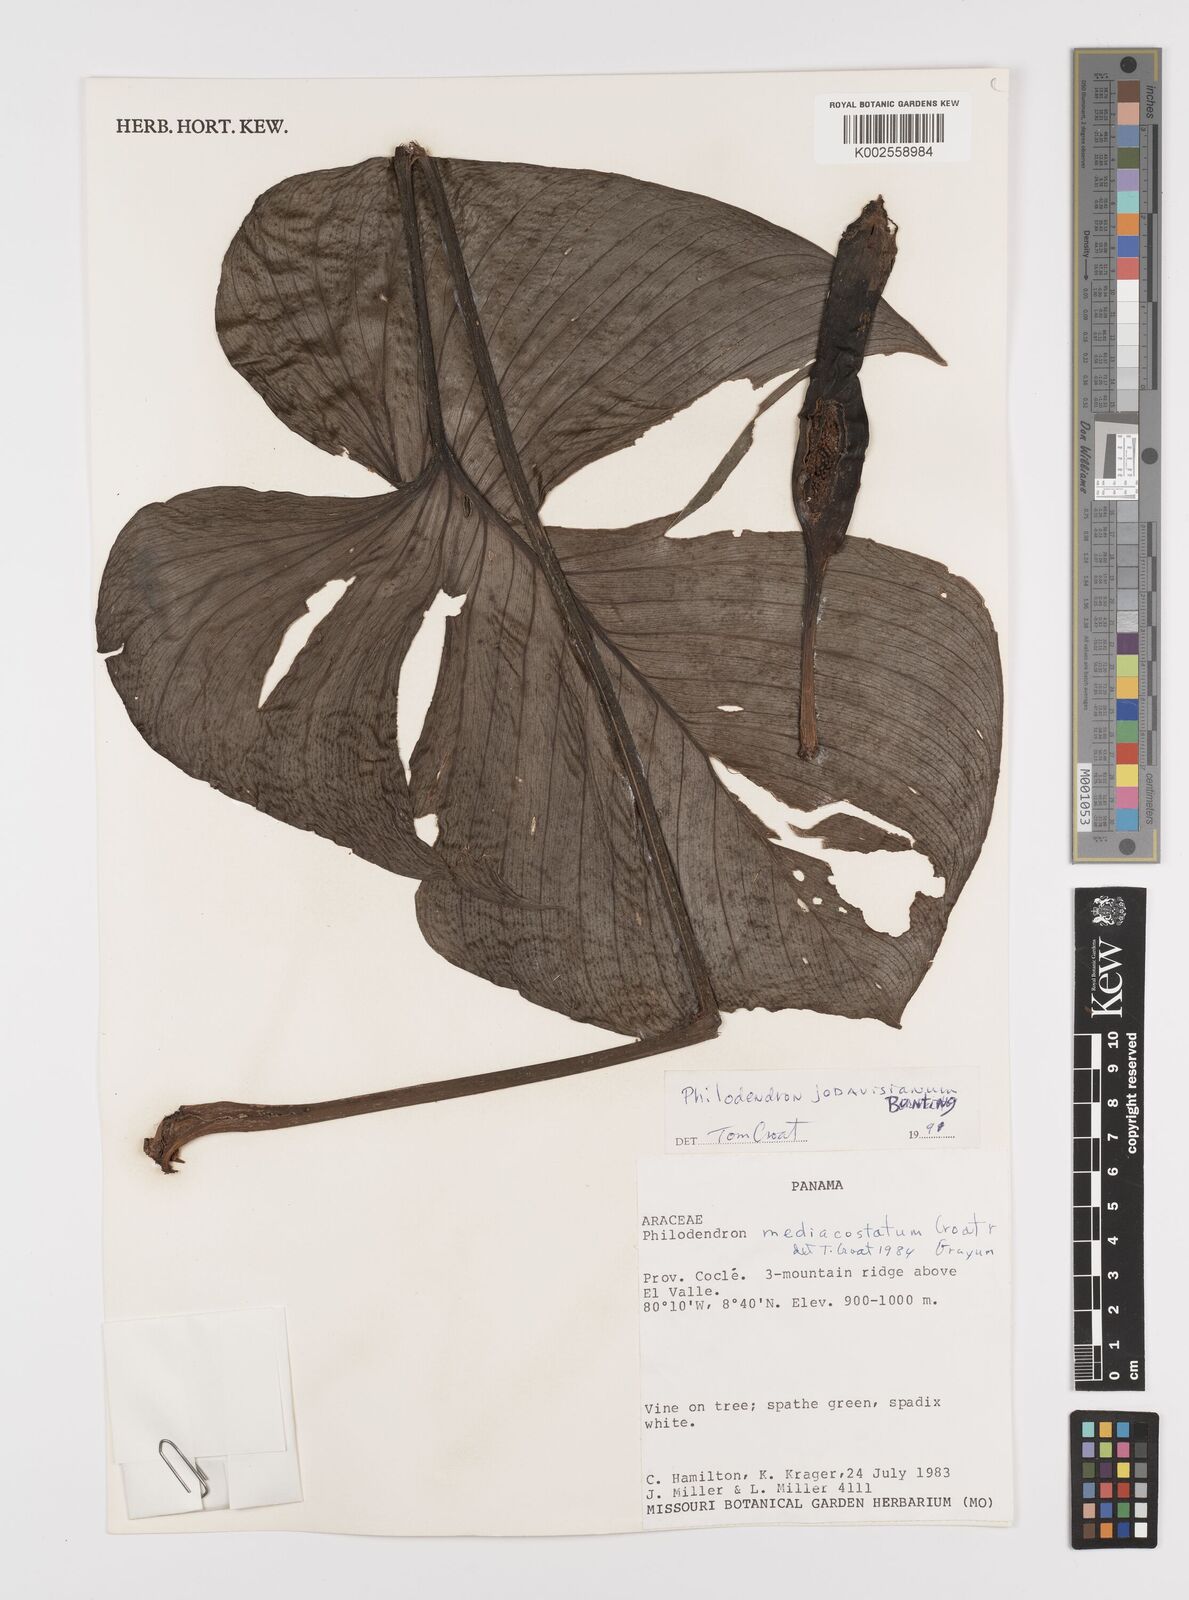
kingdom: Plantae
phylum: Tracheophyta
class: Liliopsida
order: Alismatales
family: Araceae
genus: Philodendron
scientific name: Philodendron jodavisianum
